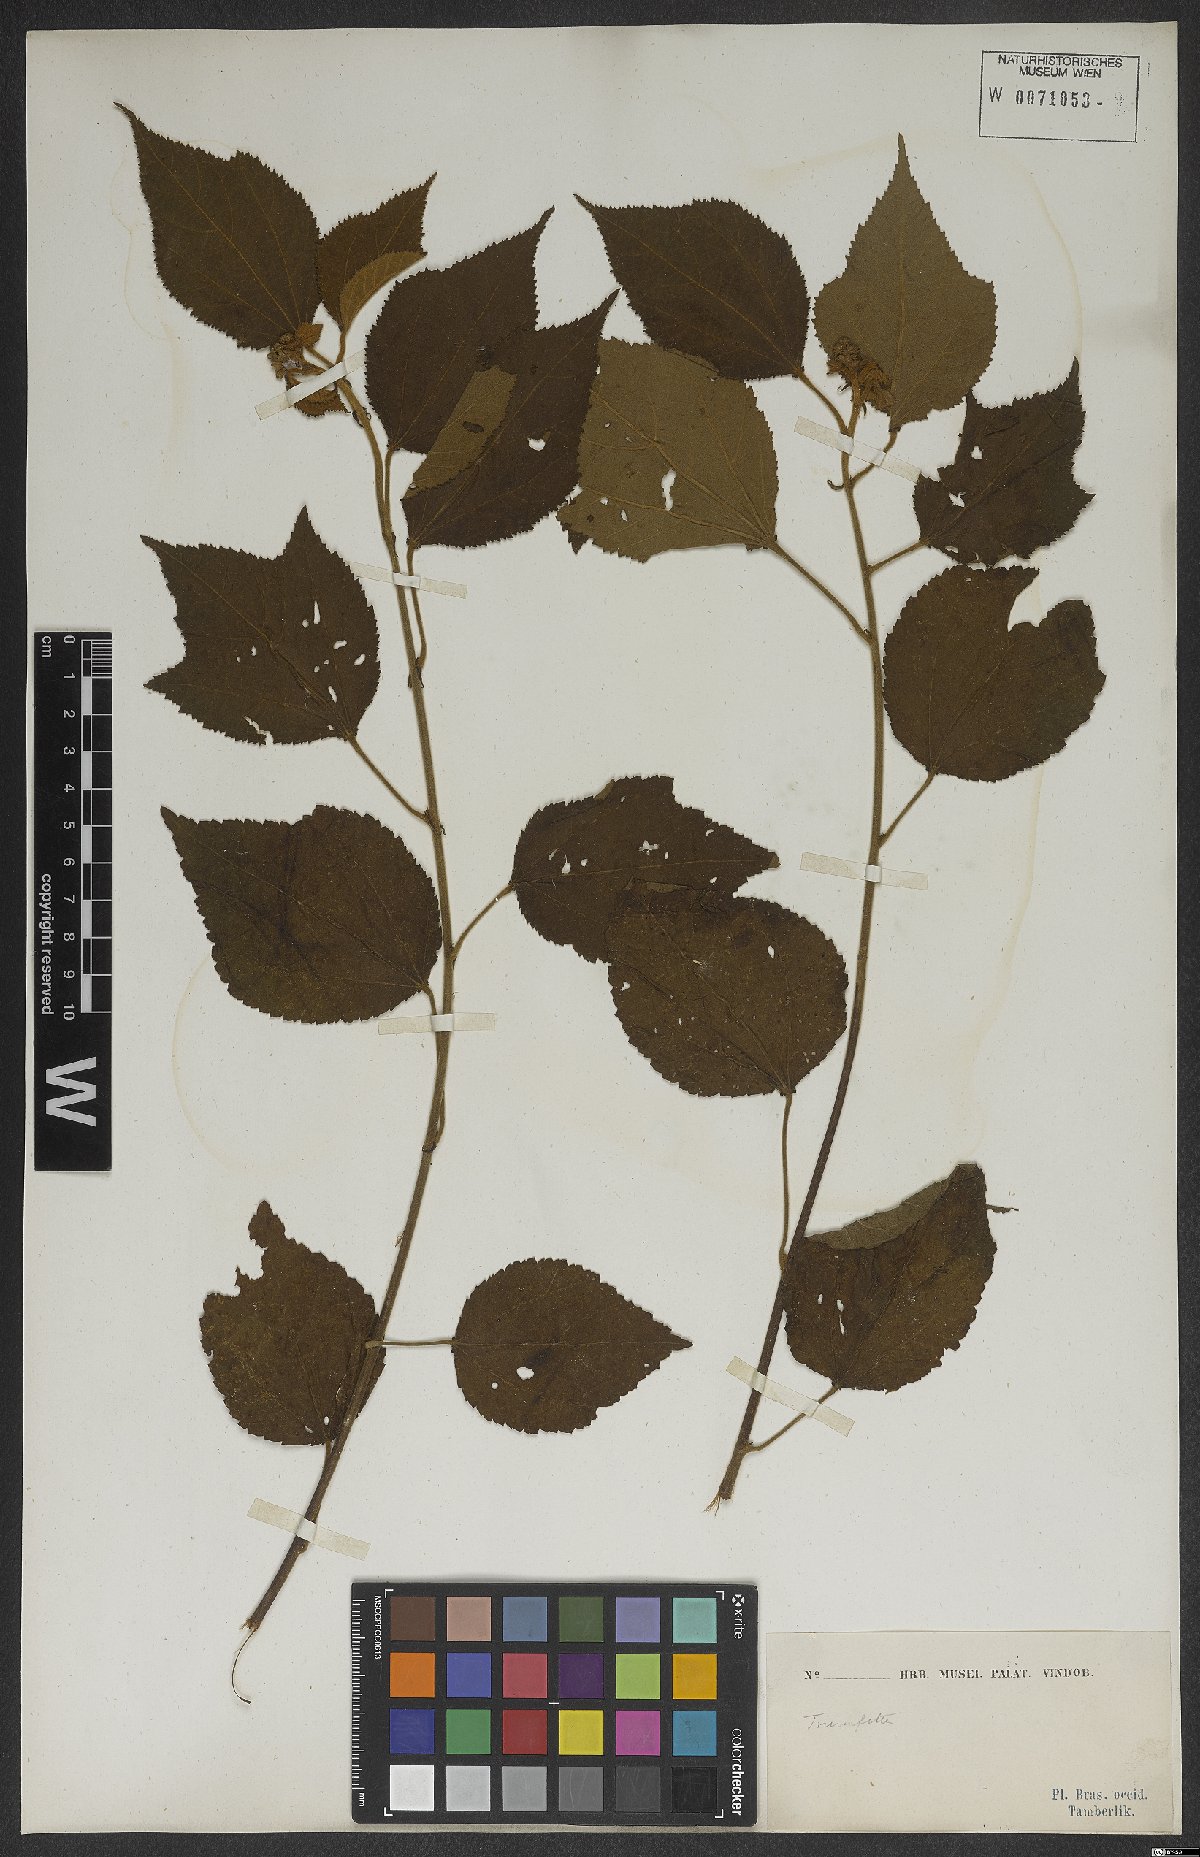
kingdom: Plantae
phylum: Tracheophyta
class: Magnoliopsida
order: Malvales
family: Malvaceae
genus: Triumfetta
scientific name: Triumfetta
